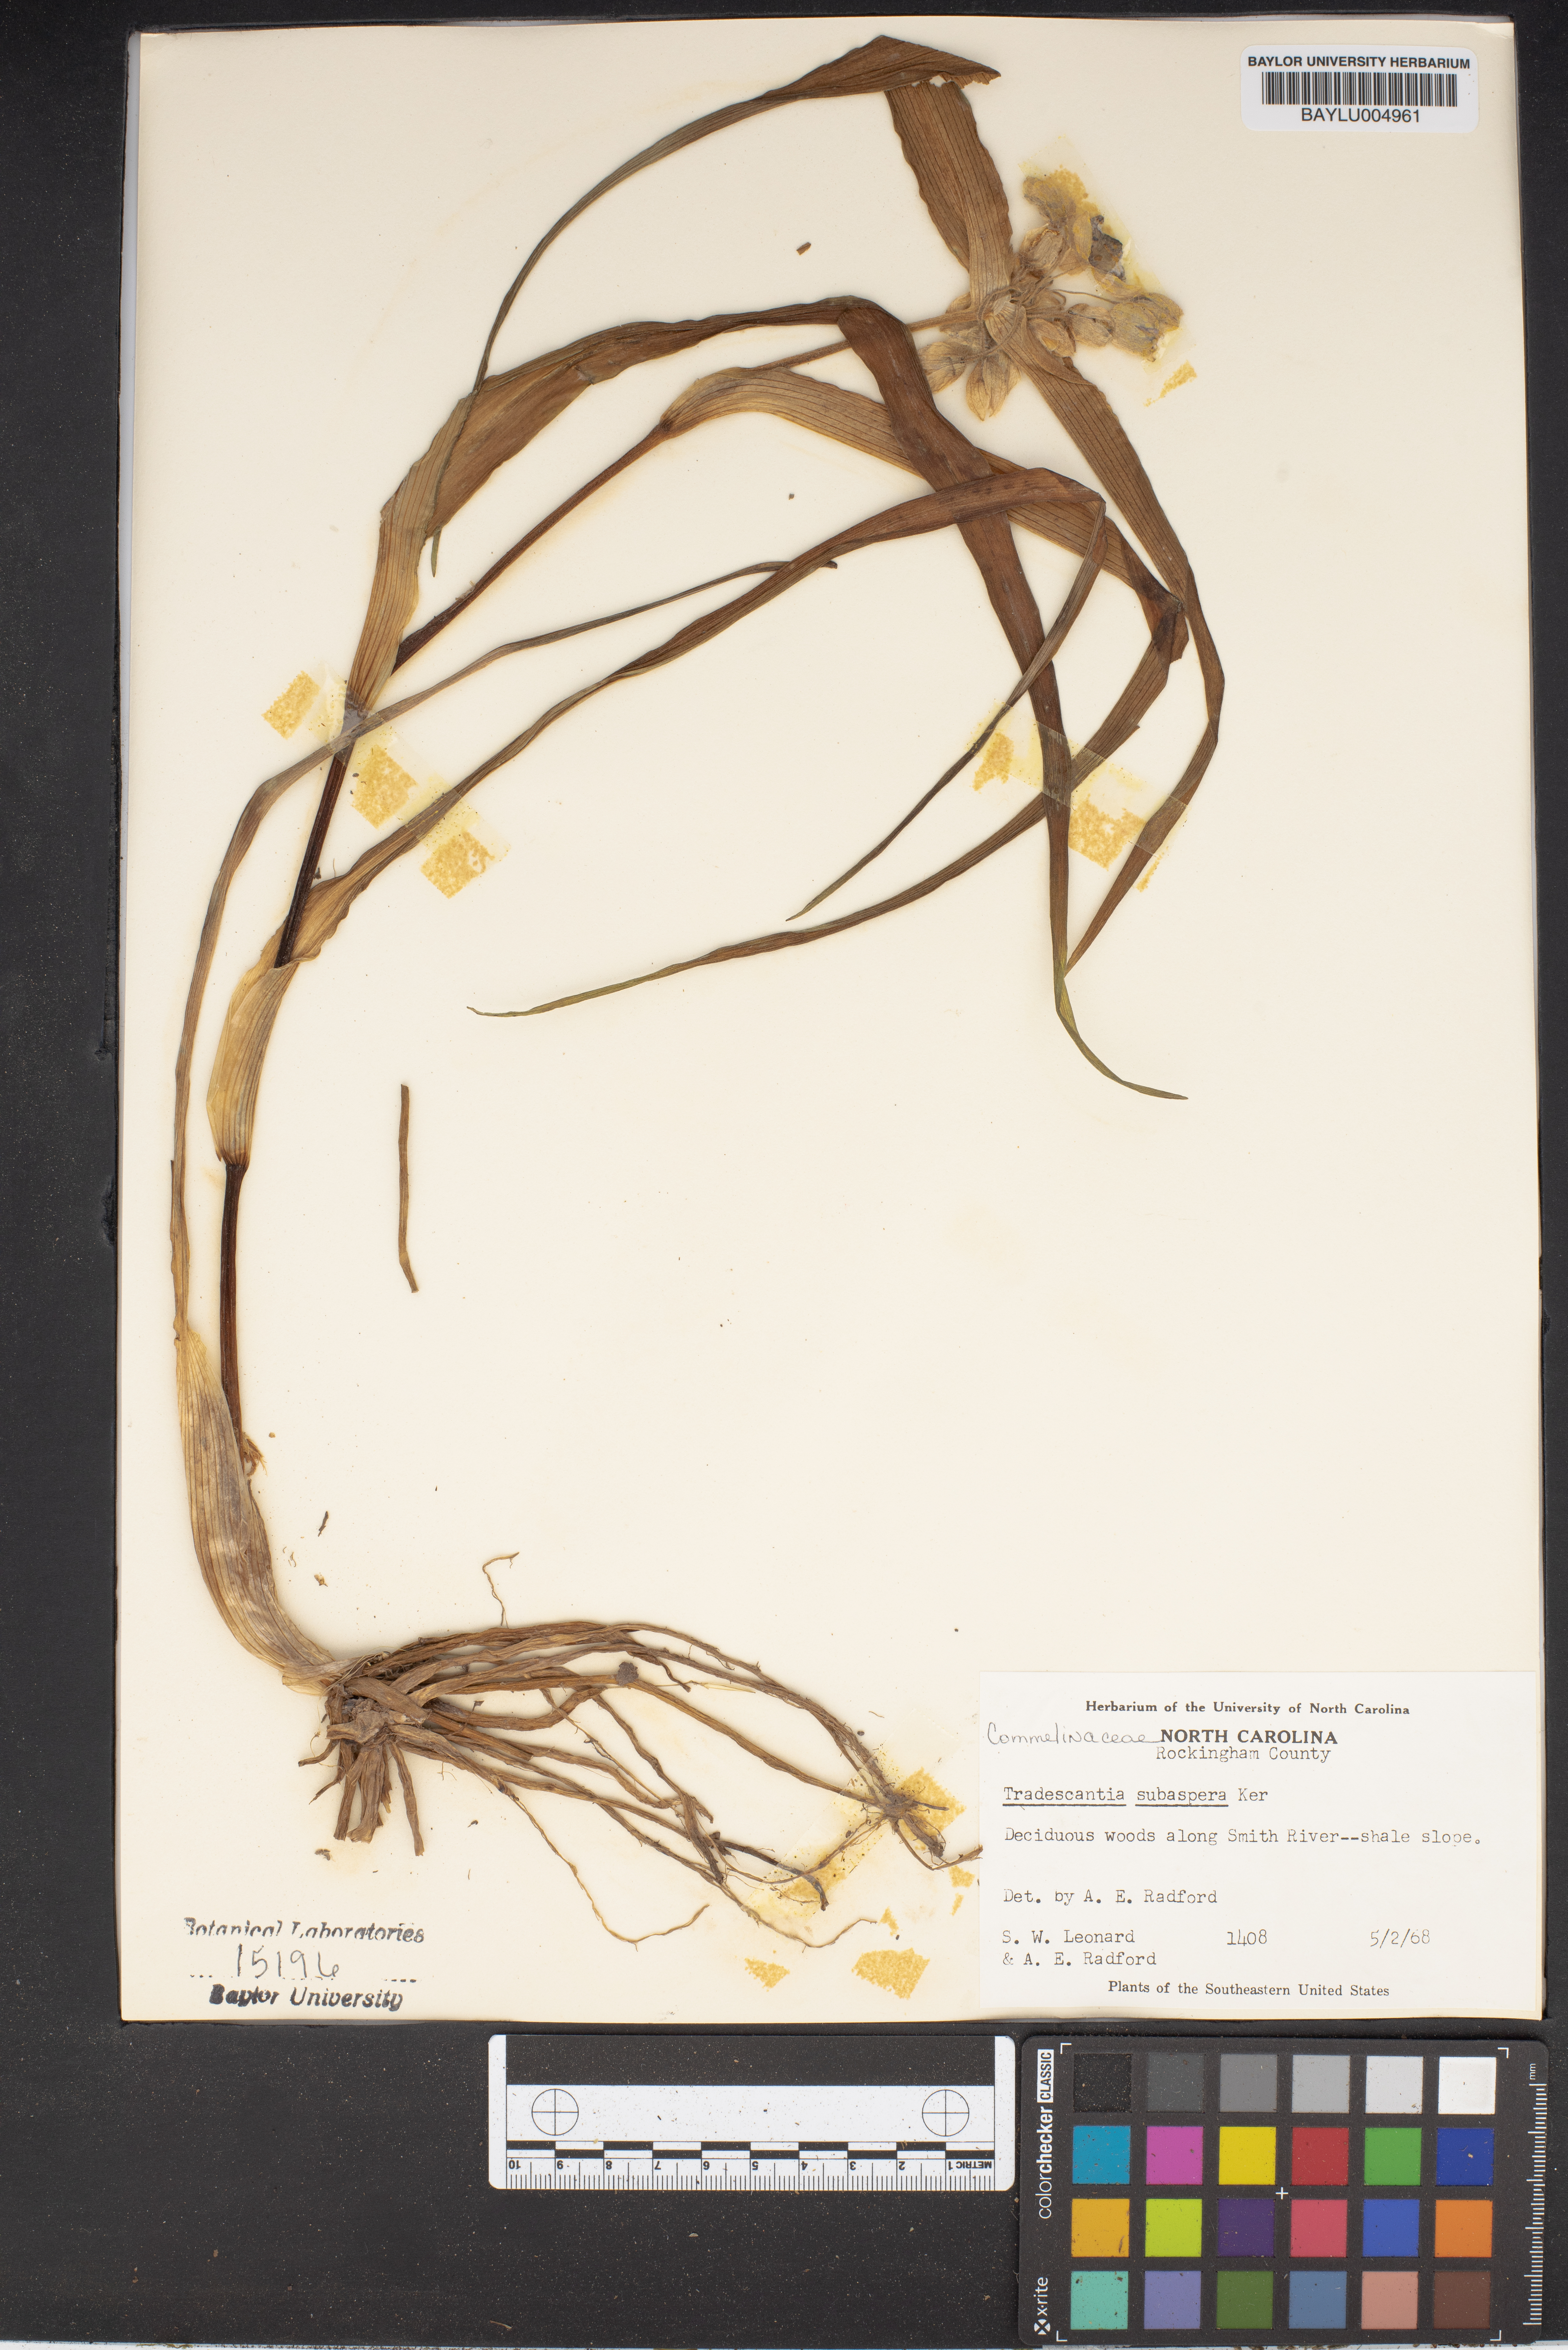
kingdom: Plantae
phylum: Tracheophyta
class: Liliopsida
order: Commelinales
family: Commelinaceae
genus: Tradescantia
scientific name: Tradescantia subaspera
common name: Wide-leaf spiderwort
